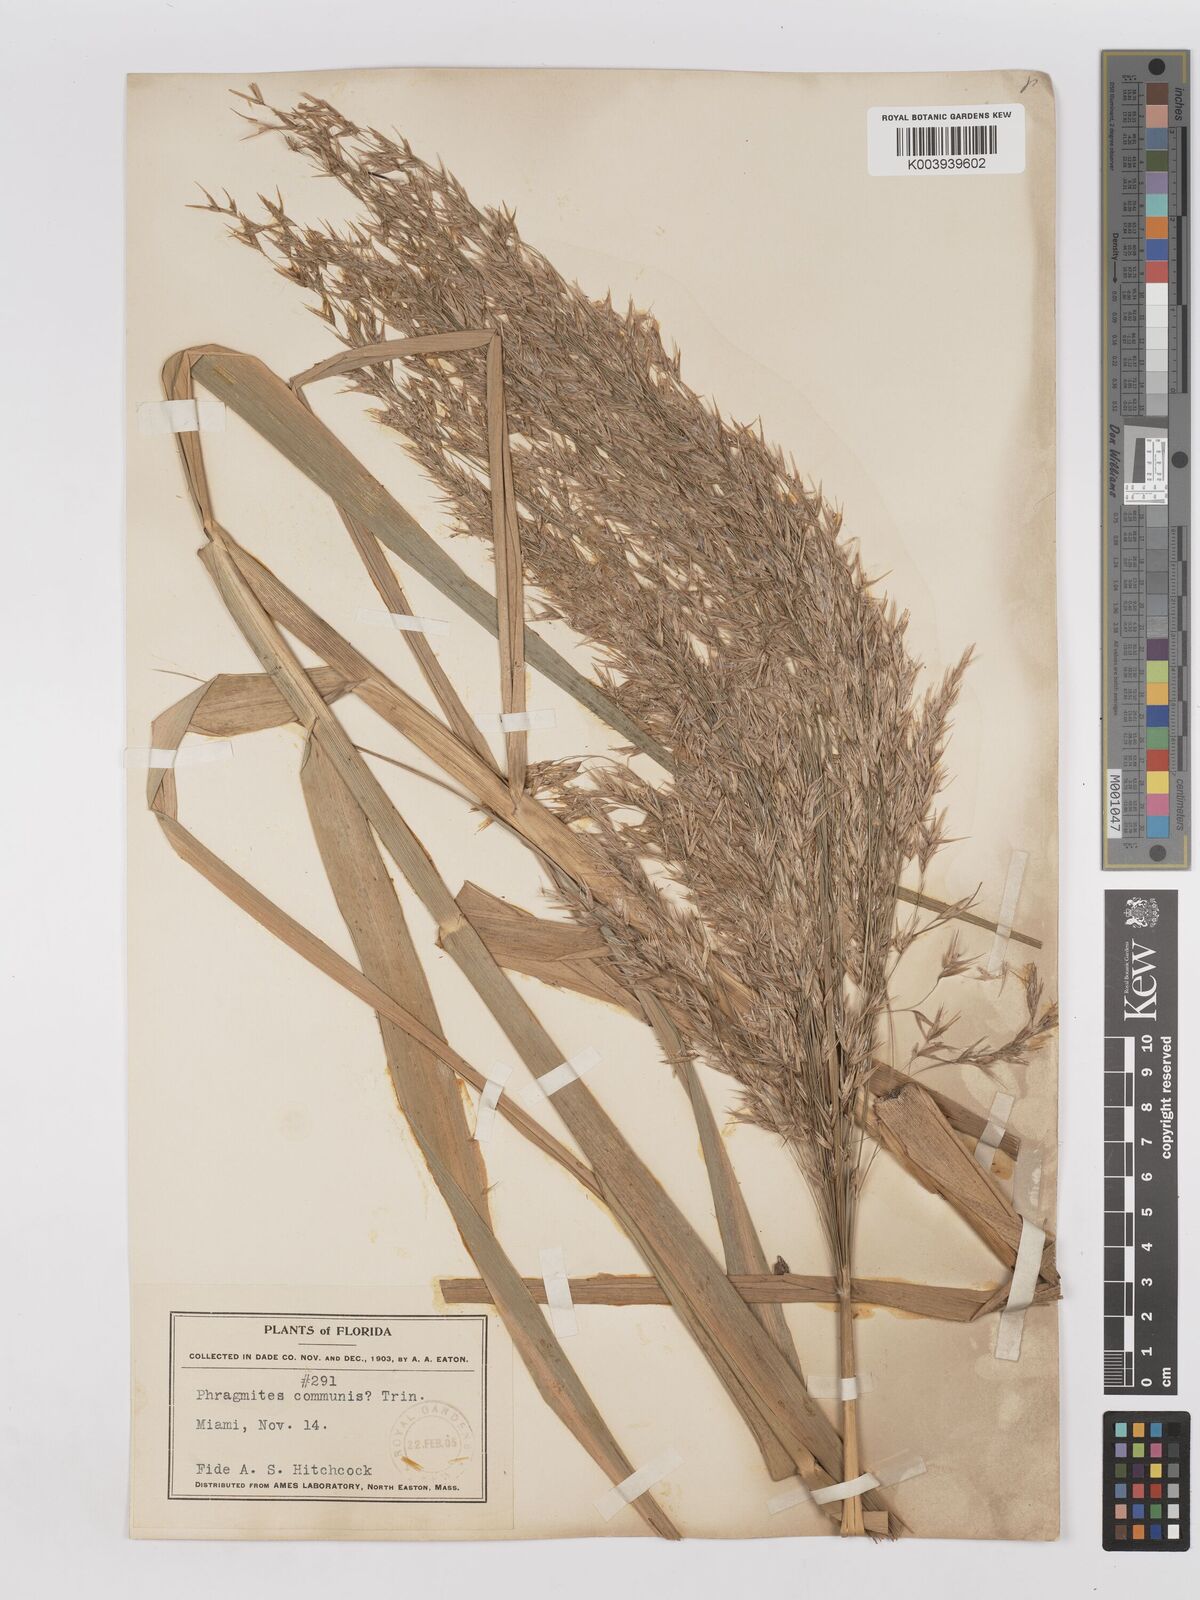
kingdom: Plantae
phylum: Tracheophyta
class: Liliopsida
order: Poales
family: Poaceae
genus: Phragmites
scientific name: Phragmites australis
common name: Common reed
